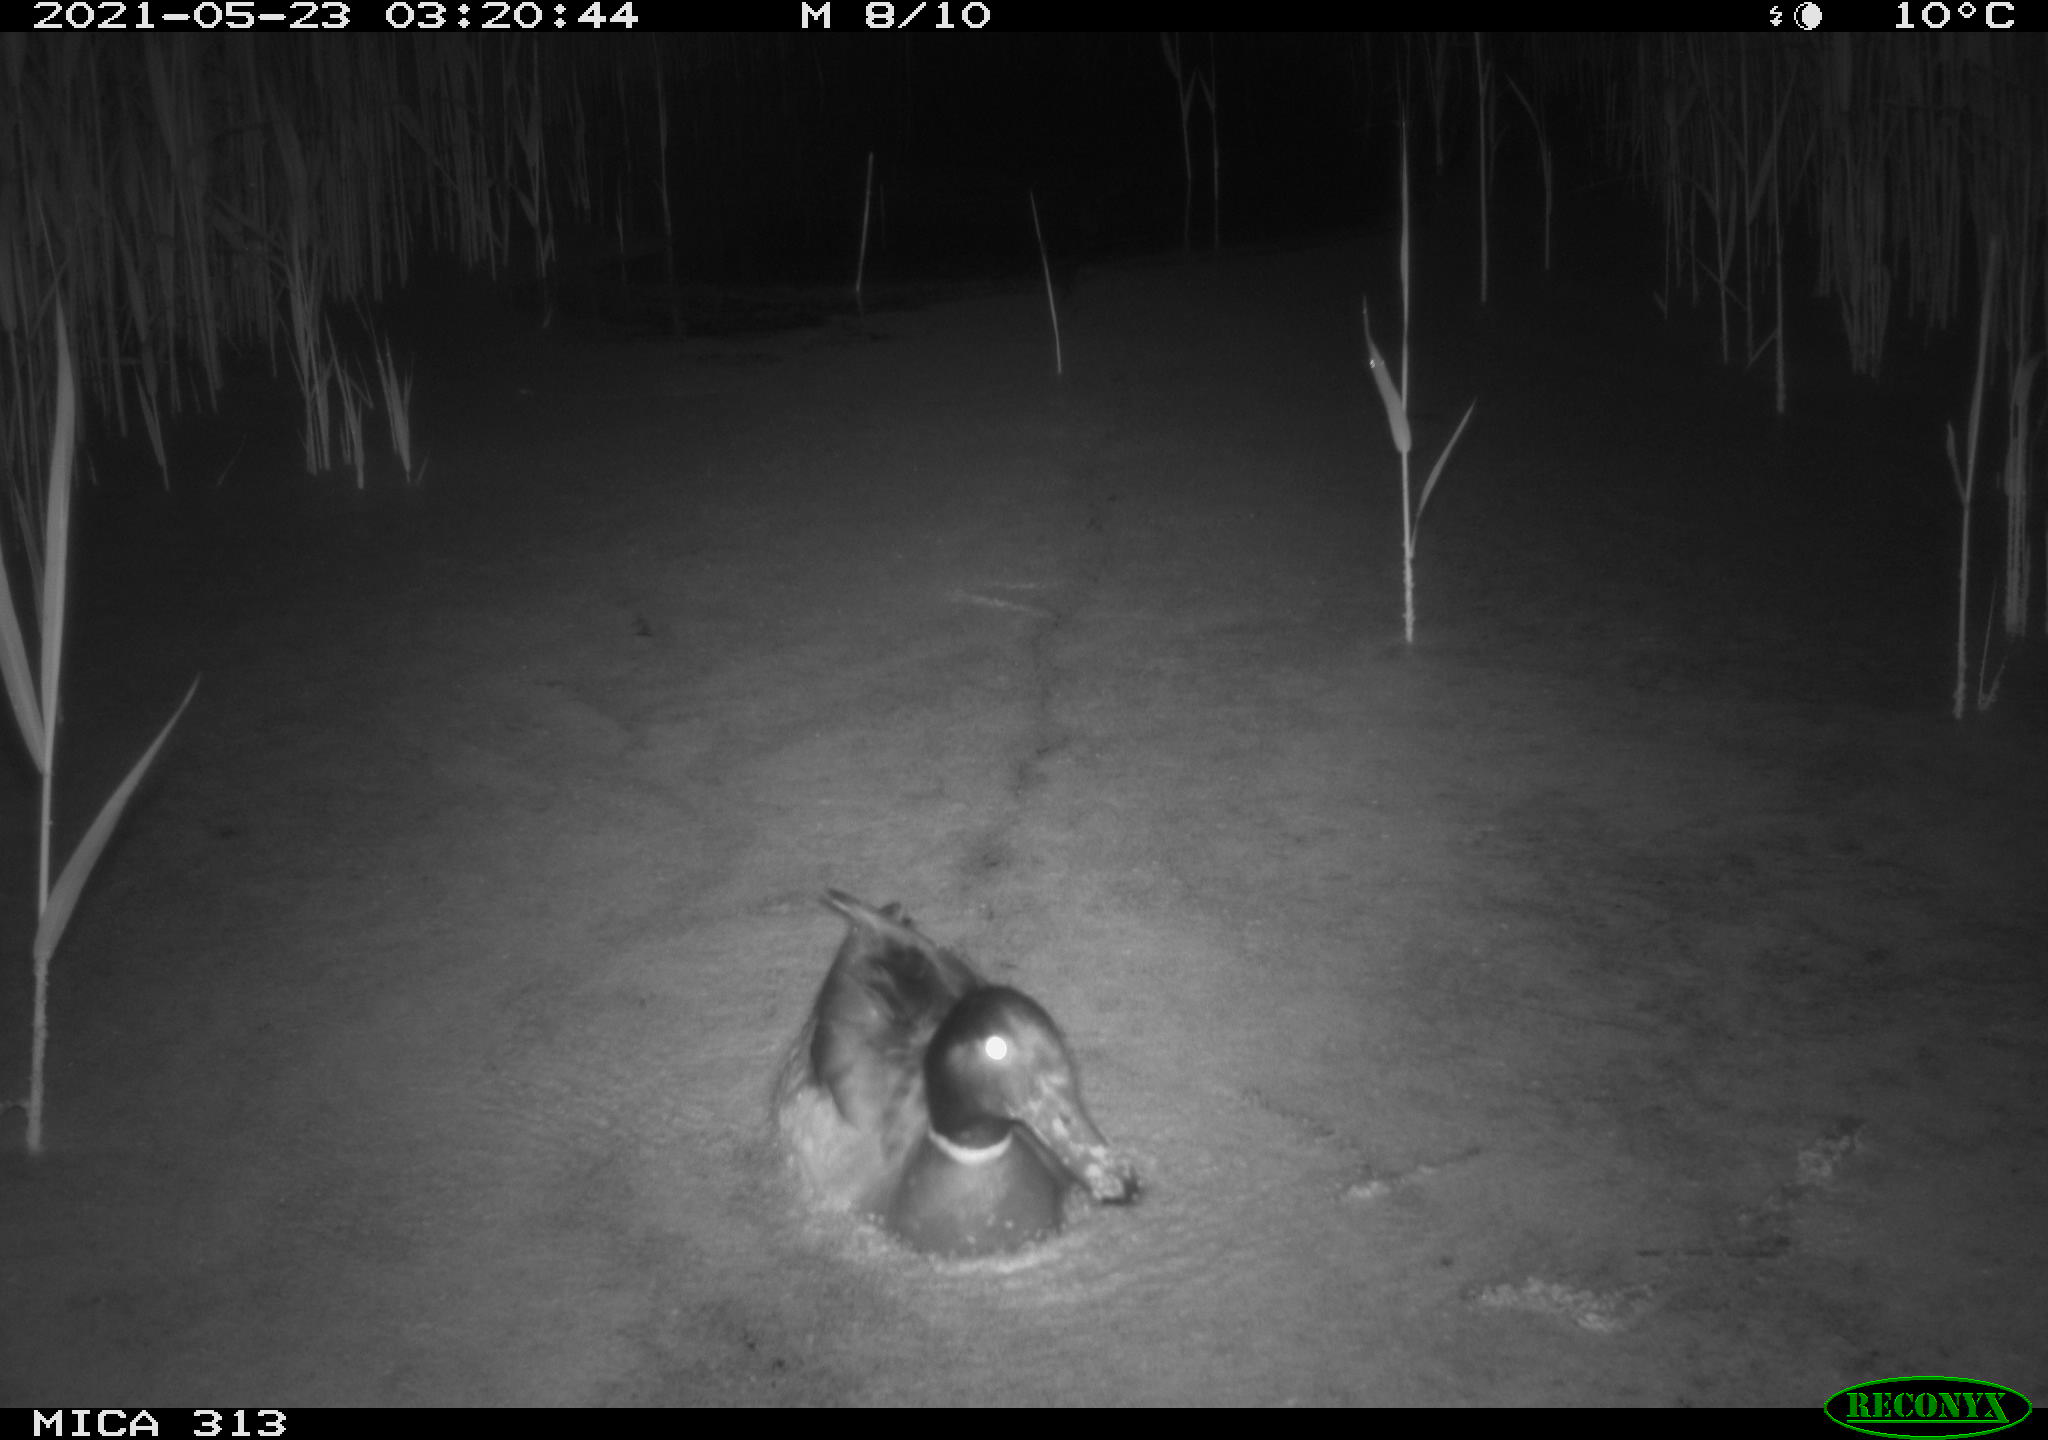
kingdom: Animalia
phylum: Chordata
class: Aves
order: Anseriformes
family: Anatidae
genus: Anas
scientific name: Anas platyrhynchos
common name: Mallard
